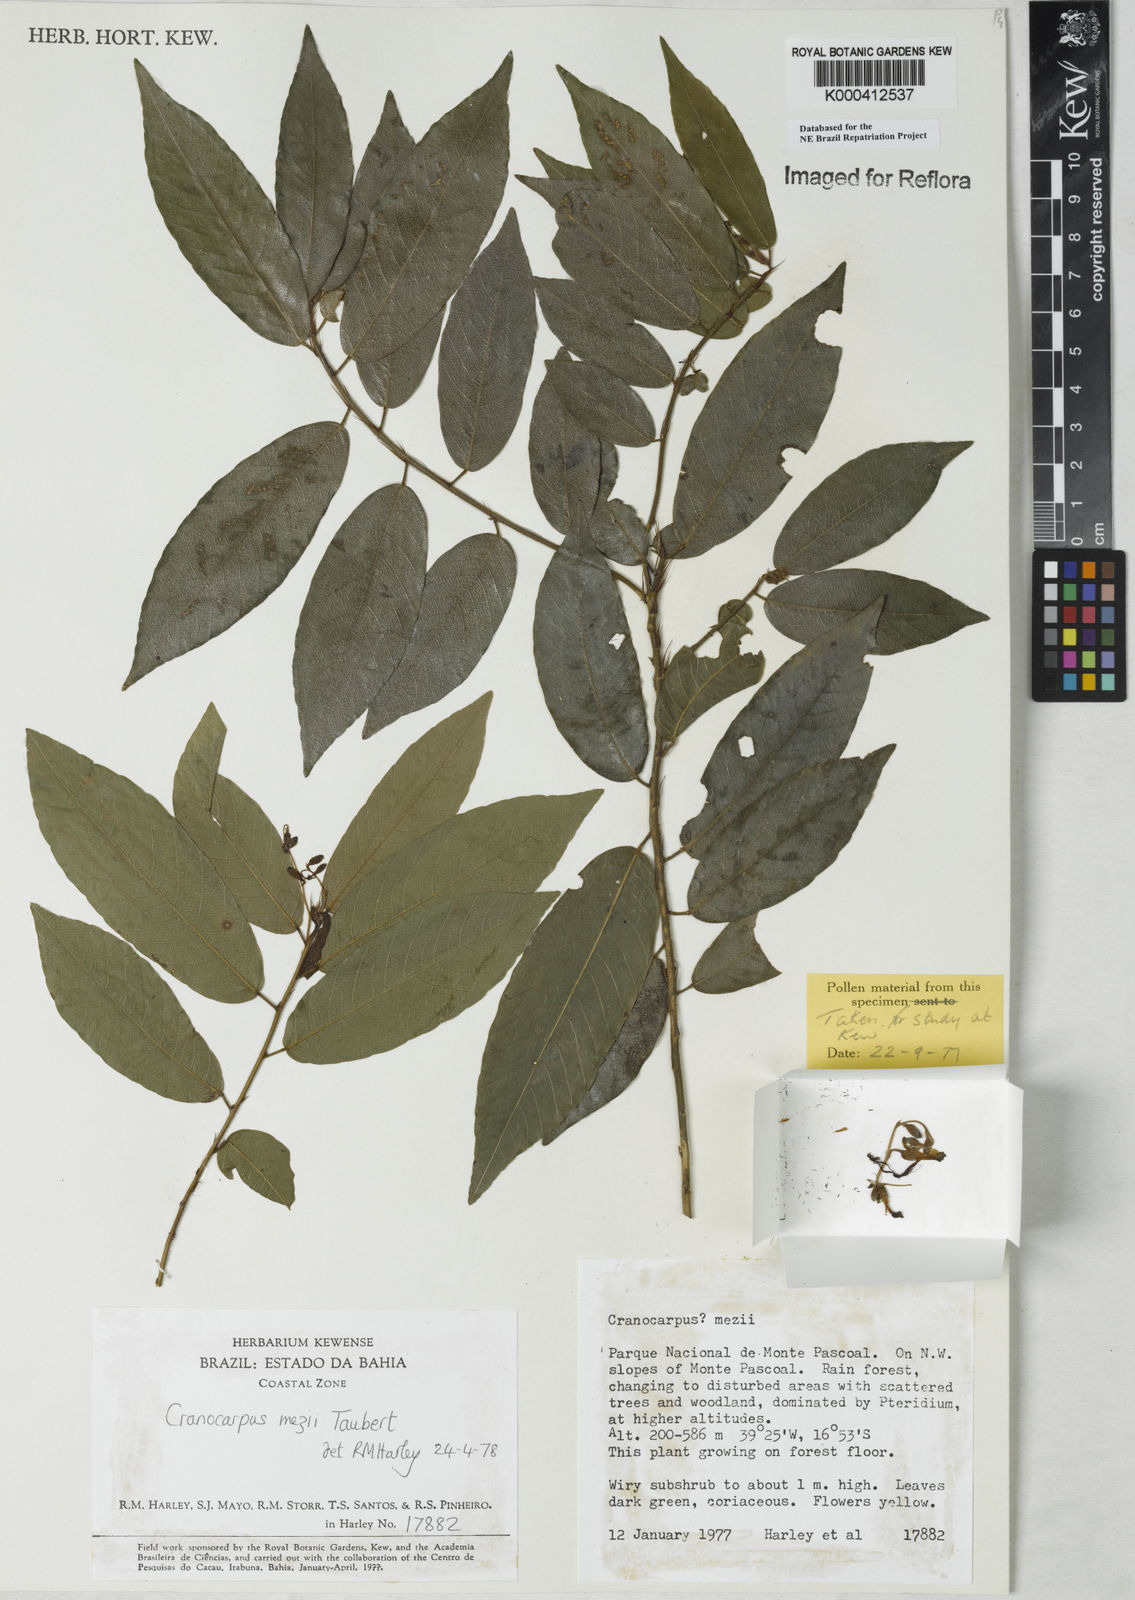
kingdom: Plantae
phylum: Tracheophyta
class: Magnoliopsida
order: Fabales
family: Fabaceae
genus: Cranocarpus
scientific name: Cranocarpus mezii
